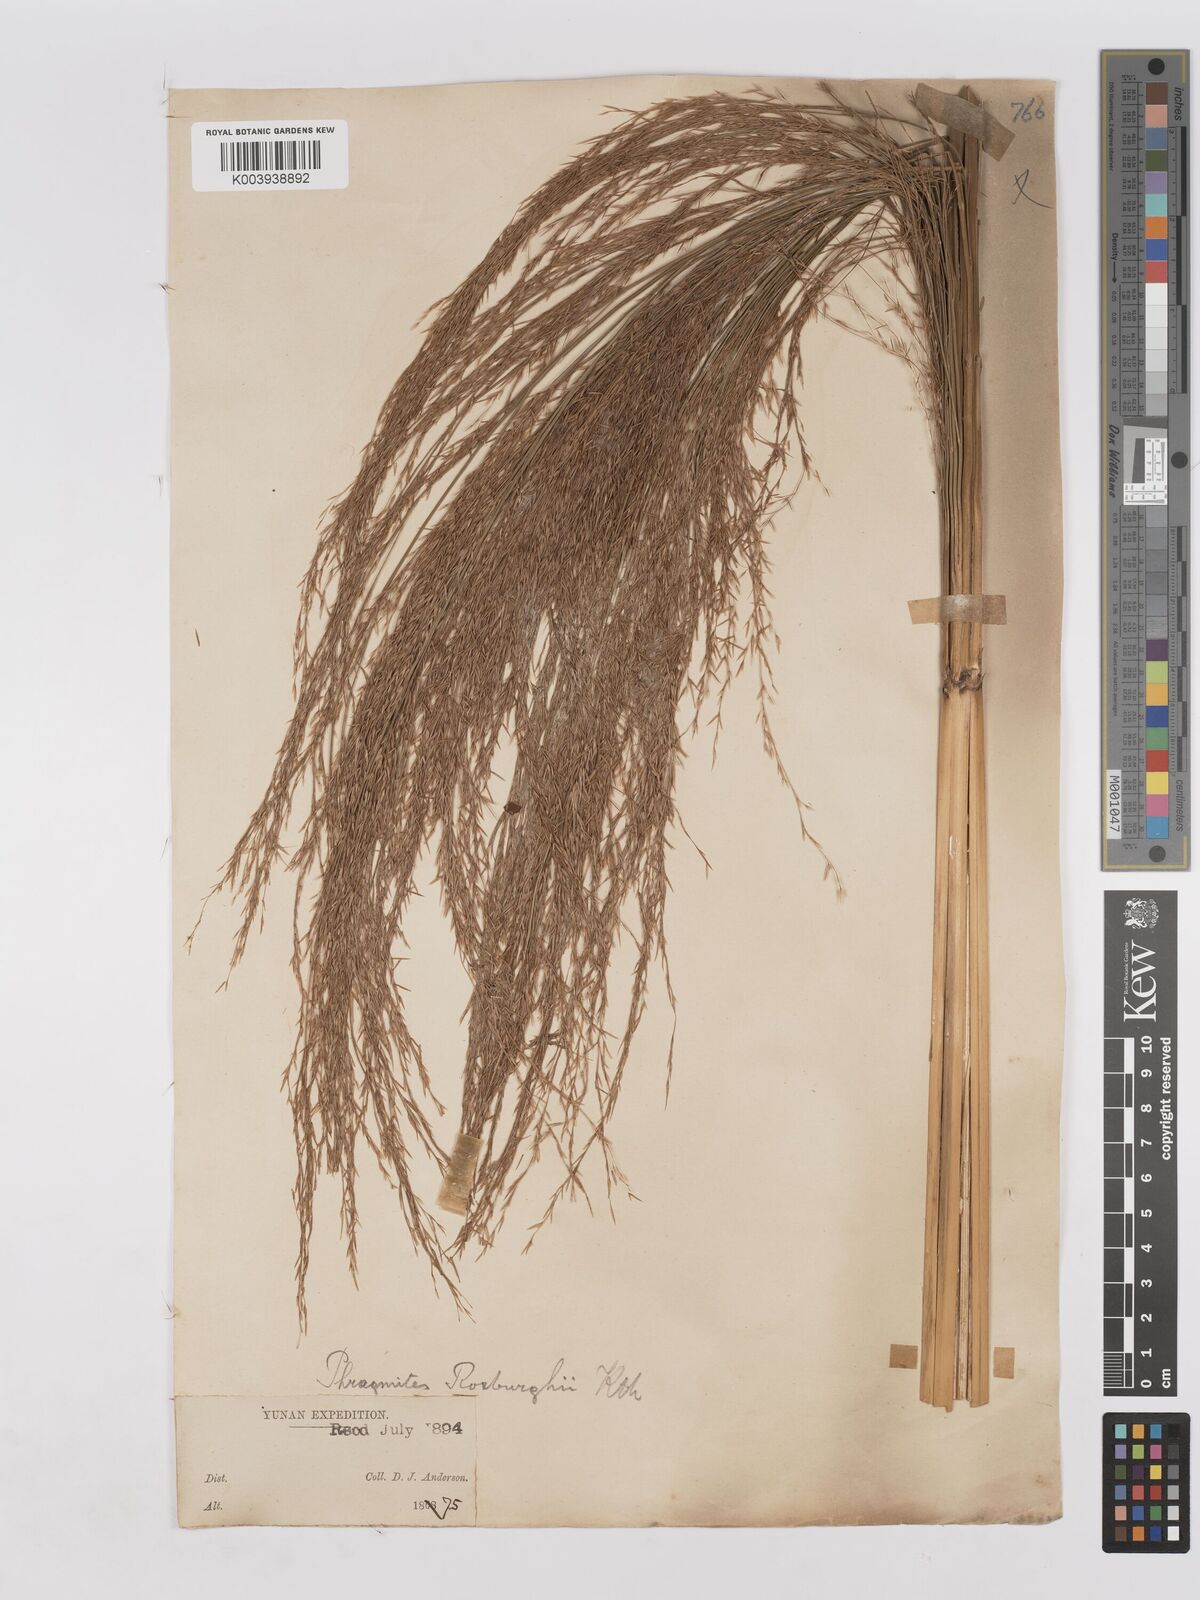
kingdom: Plantae
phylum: Tracheophyta
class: Liliopsida
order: Poales
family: Poaceae
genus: Phragmites
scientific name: Phragmites karka
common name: Tropical reed
